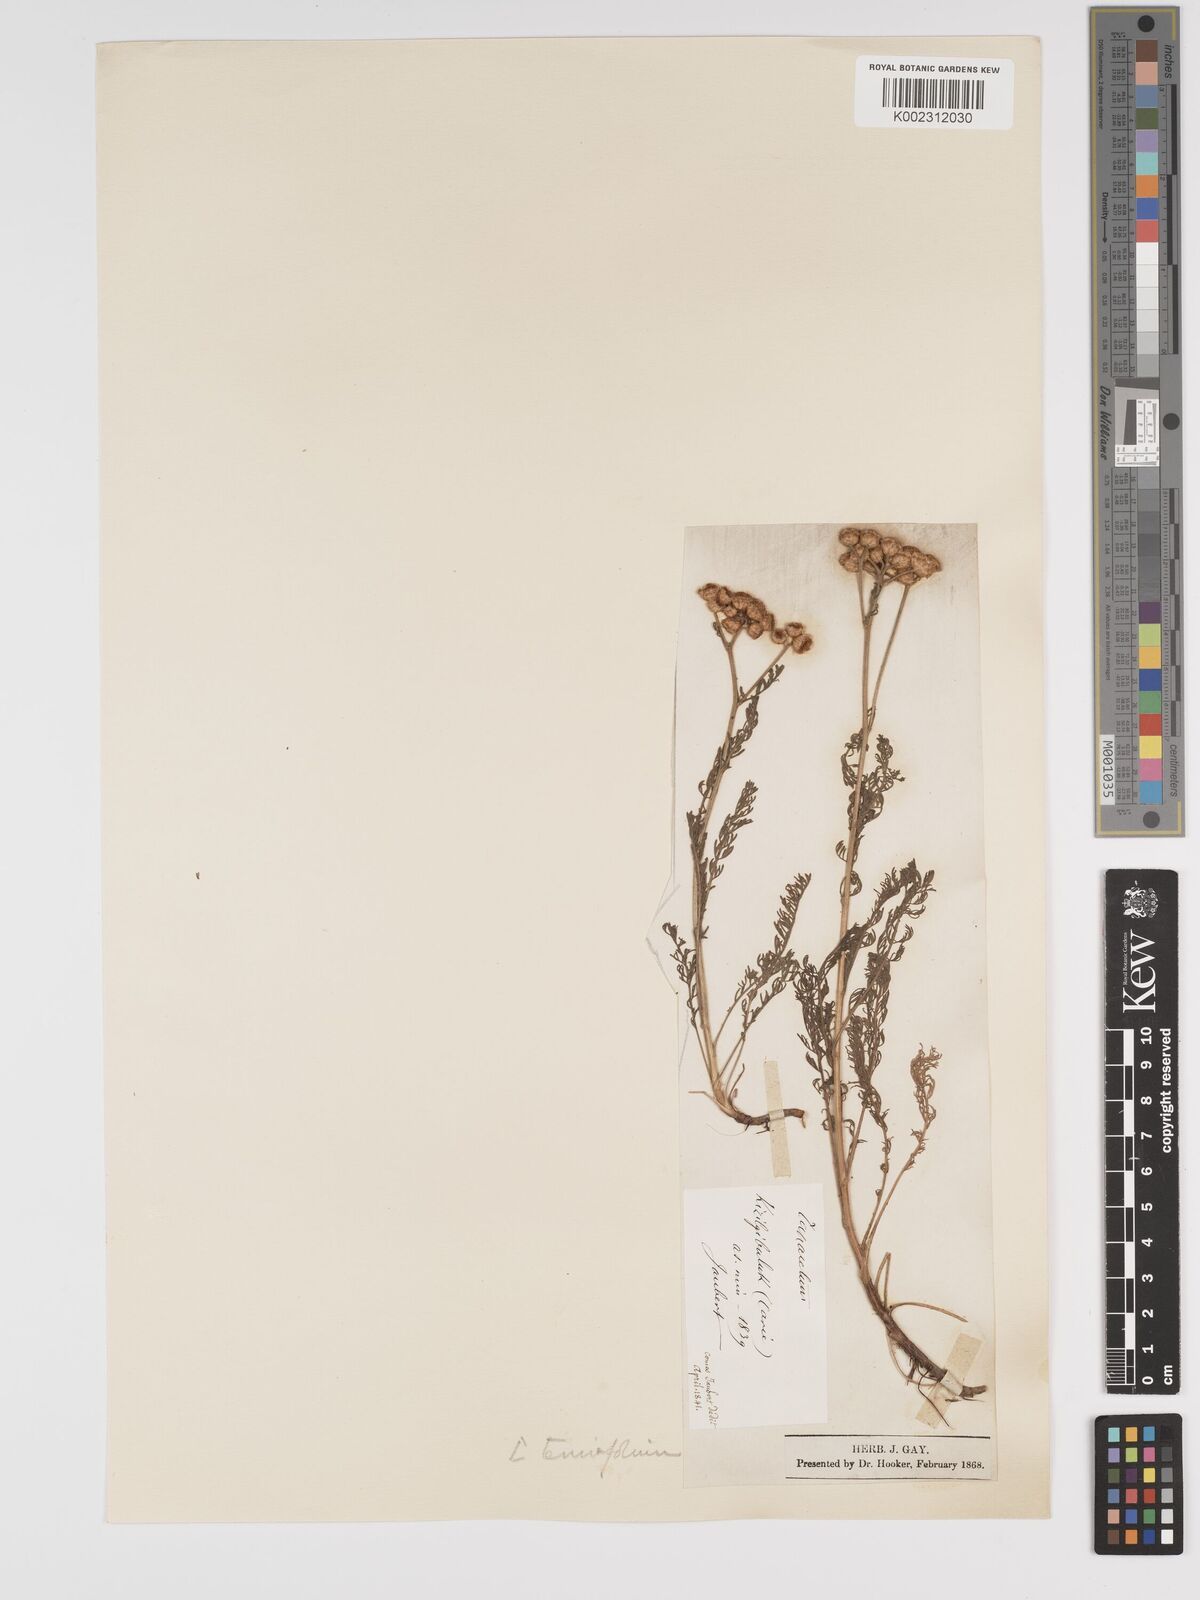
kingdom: Plantae
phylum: Tracheophyta
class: Magnoliopsida
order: Asterales
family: Asteraceae
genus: Tanacetum
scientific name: Tanacetum aucheri
